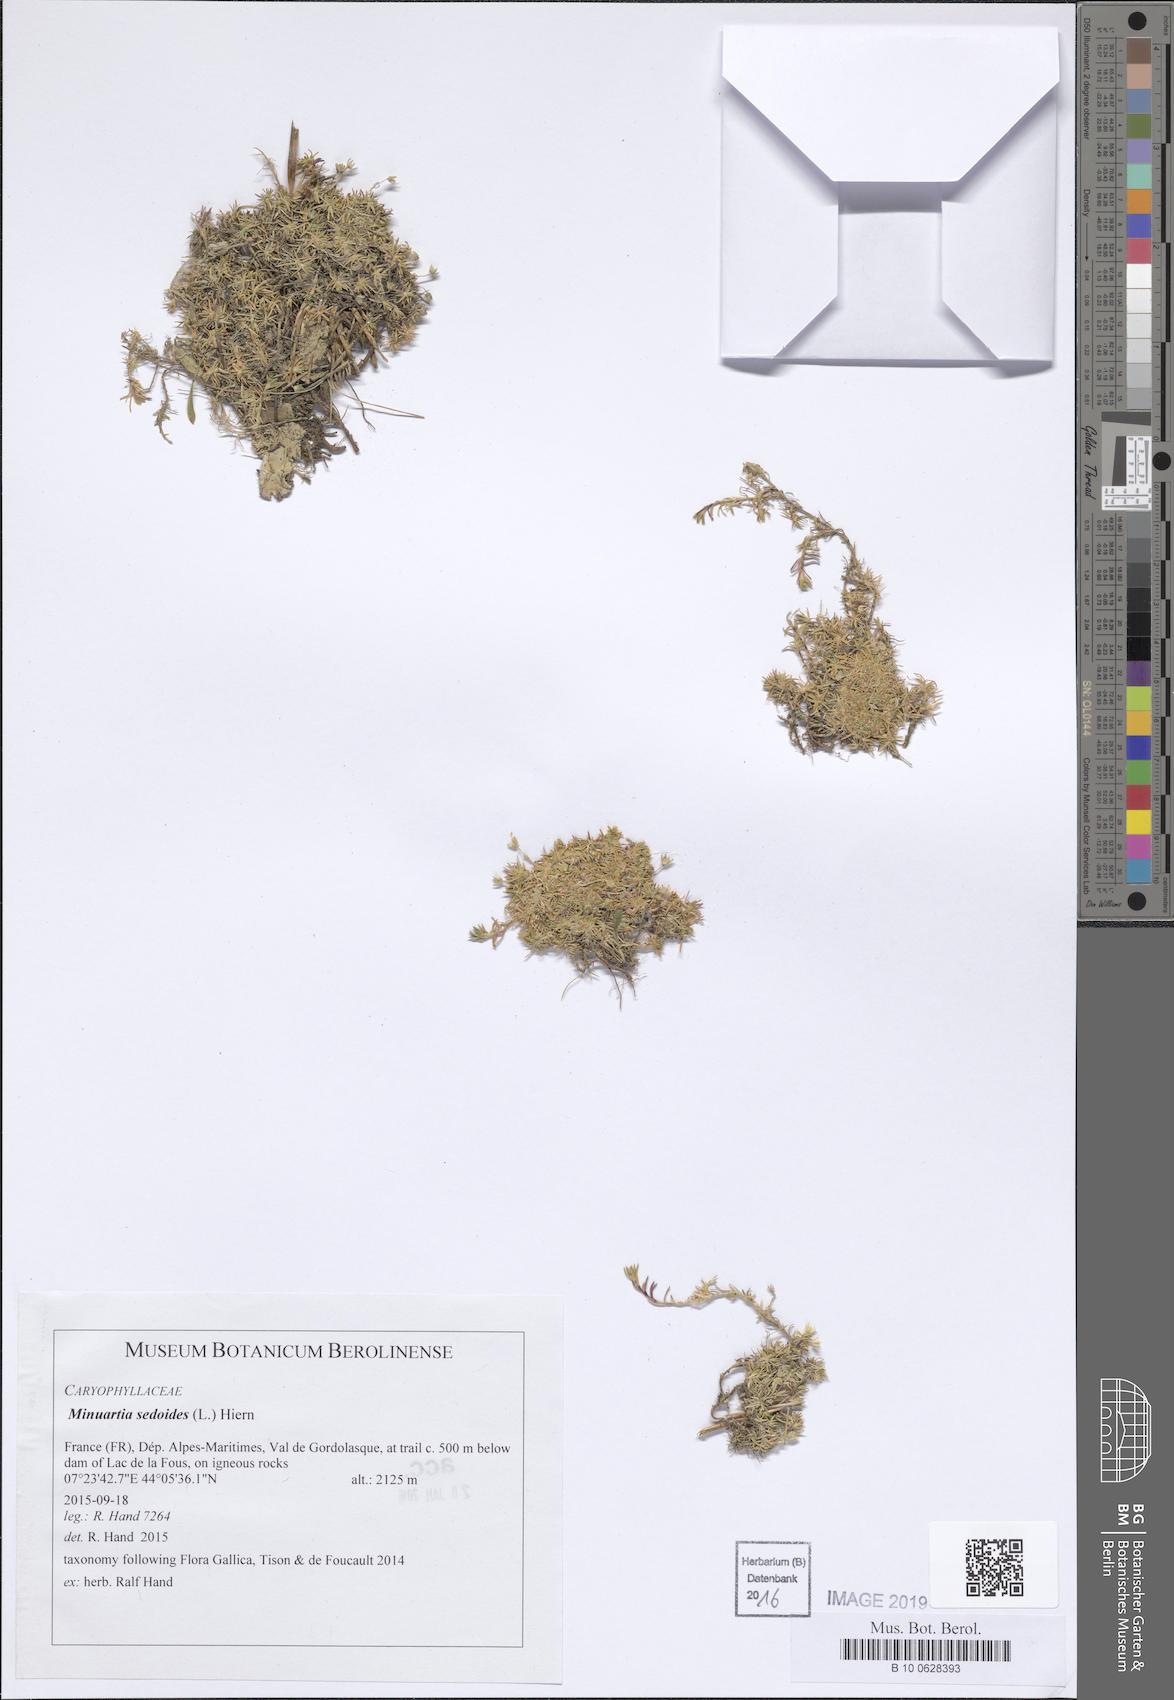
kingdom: Plantae
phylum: Tracheophyta
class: Magnoliopsida
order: Caryophyllales
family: Caryophyllaceae
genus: Cherleria
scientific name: Cherleria sedoides
